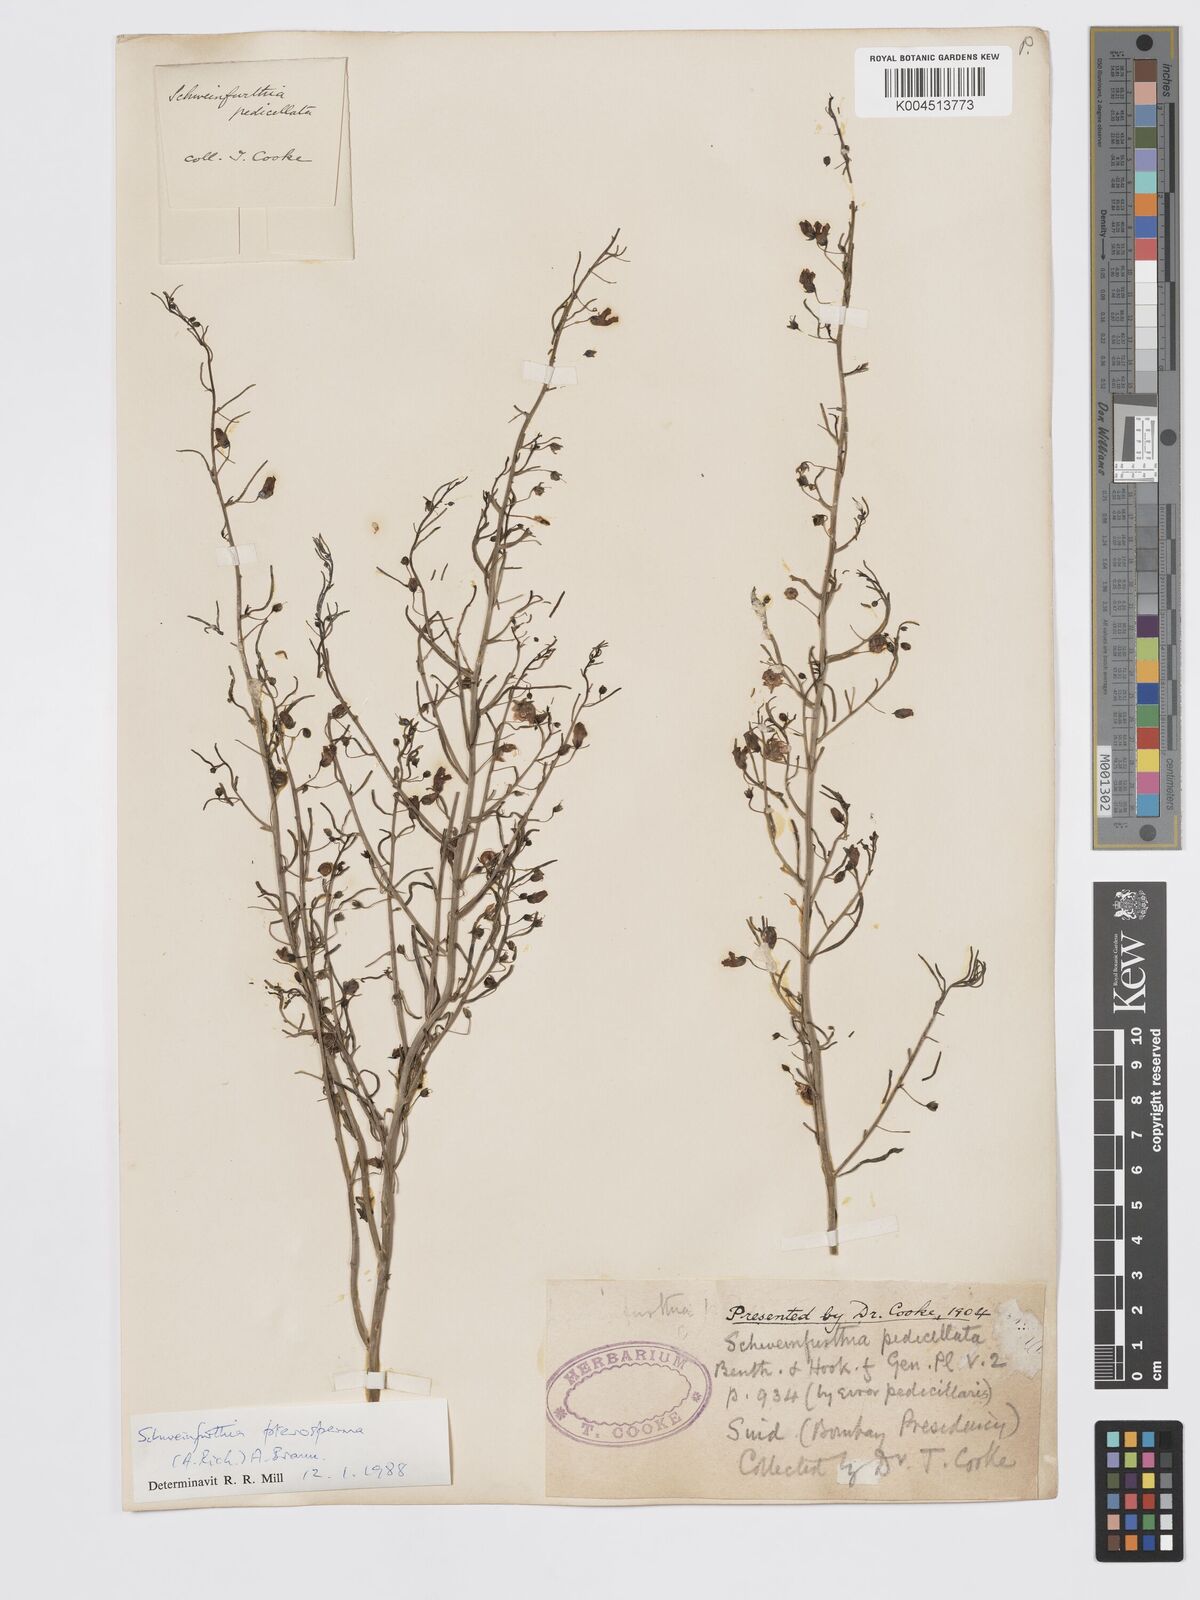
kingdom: Plantae
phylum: Tracheophyta
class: Magnoliopsida
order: Lamiales
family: Plantaginaceae
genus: Schweinfurthia
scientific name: Schweinfurthia pedicellata
